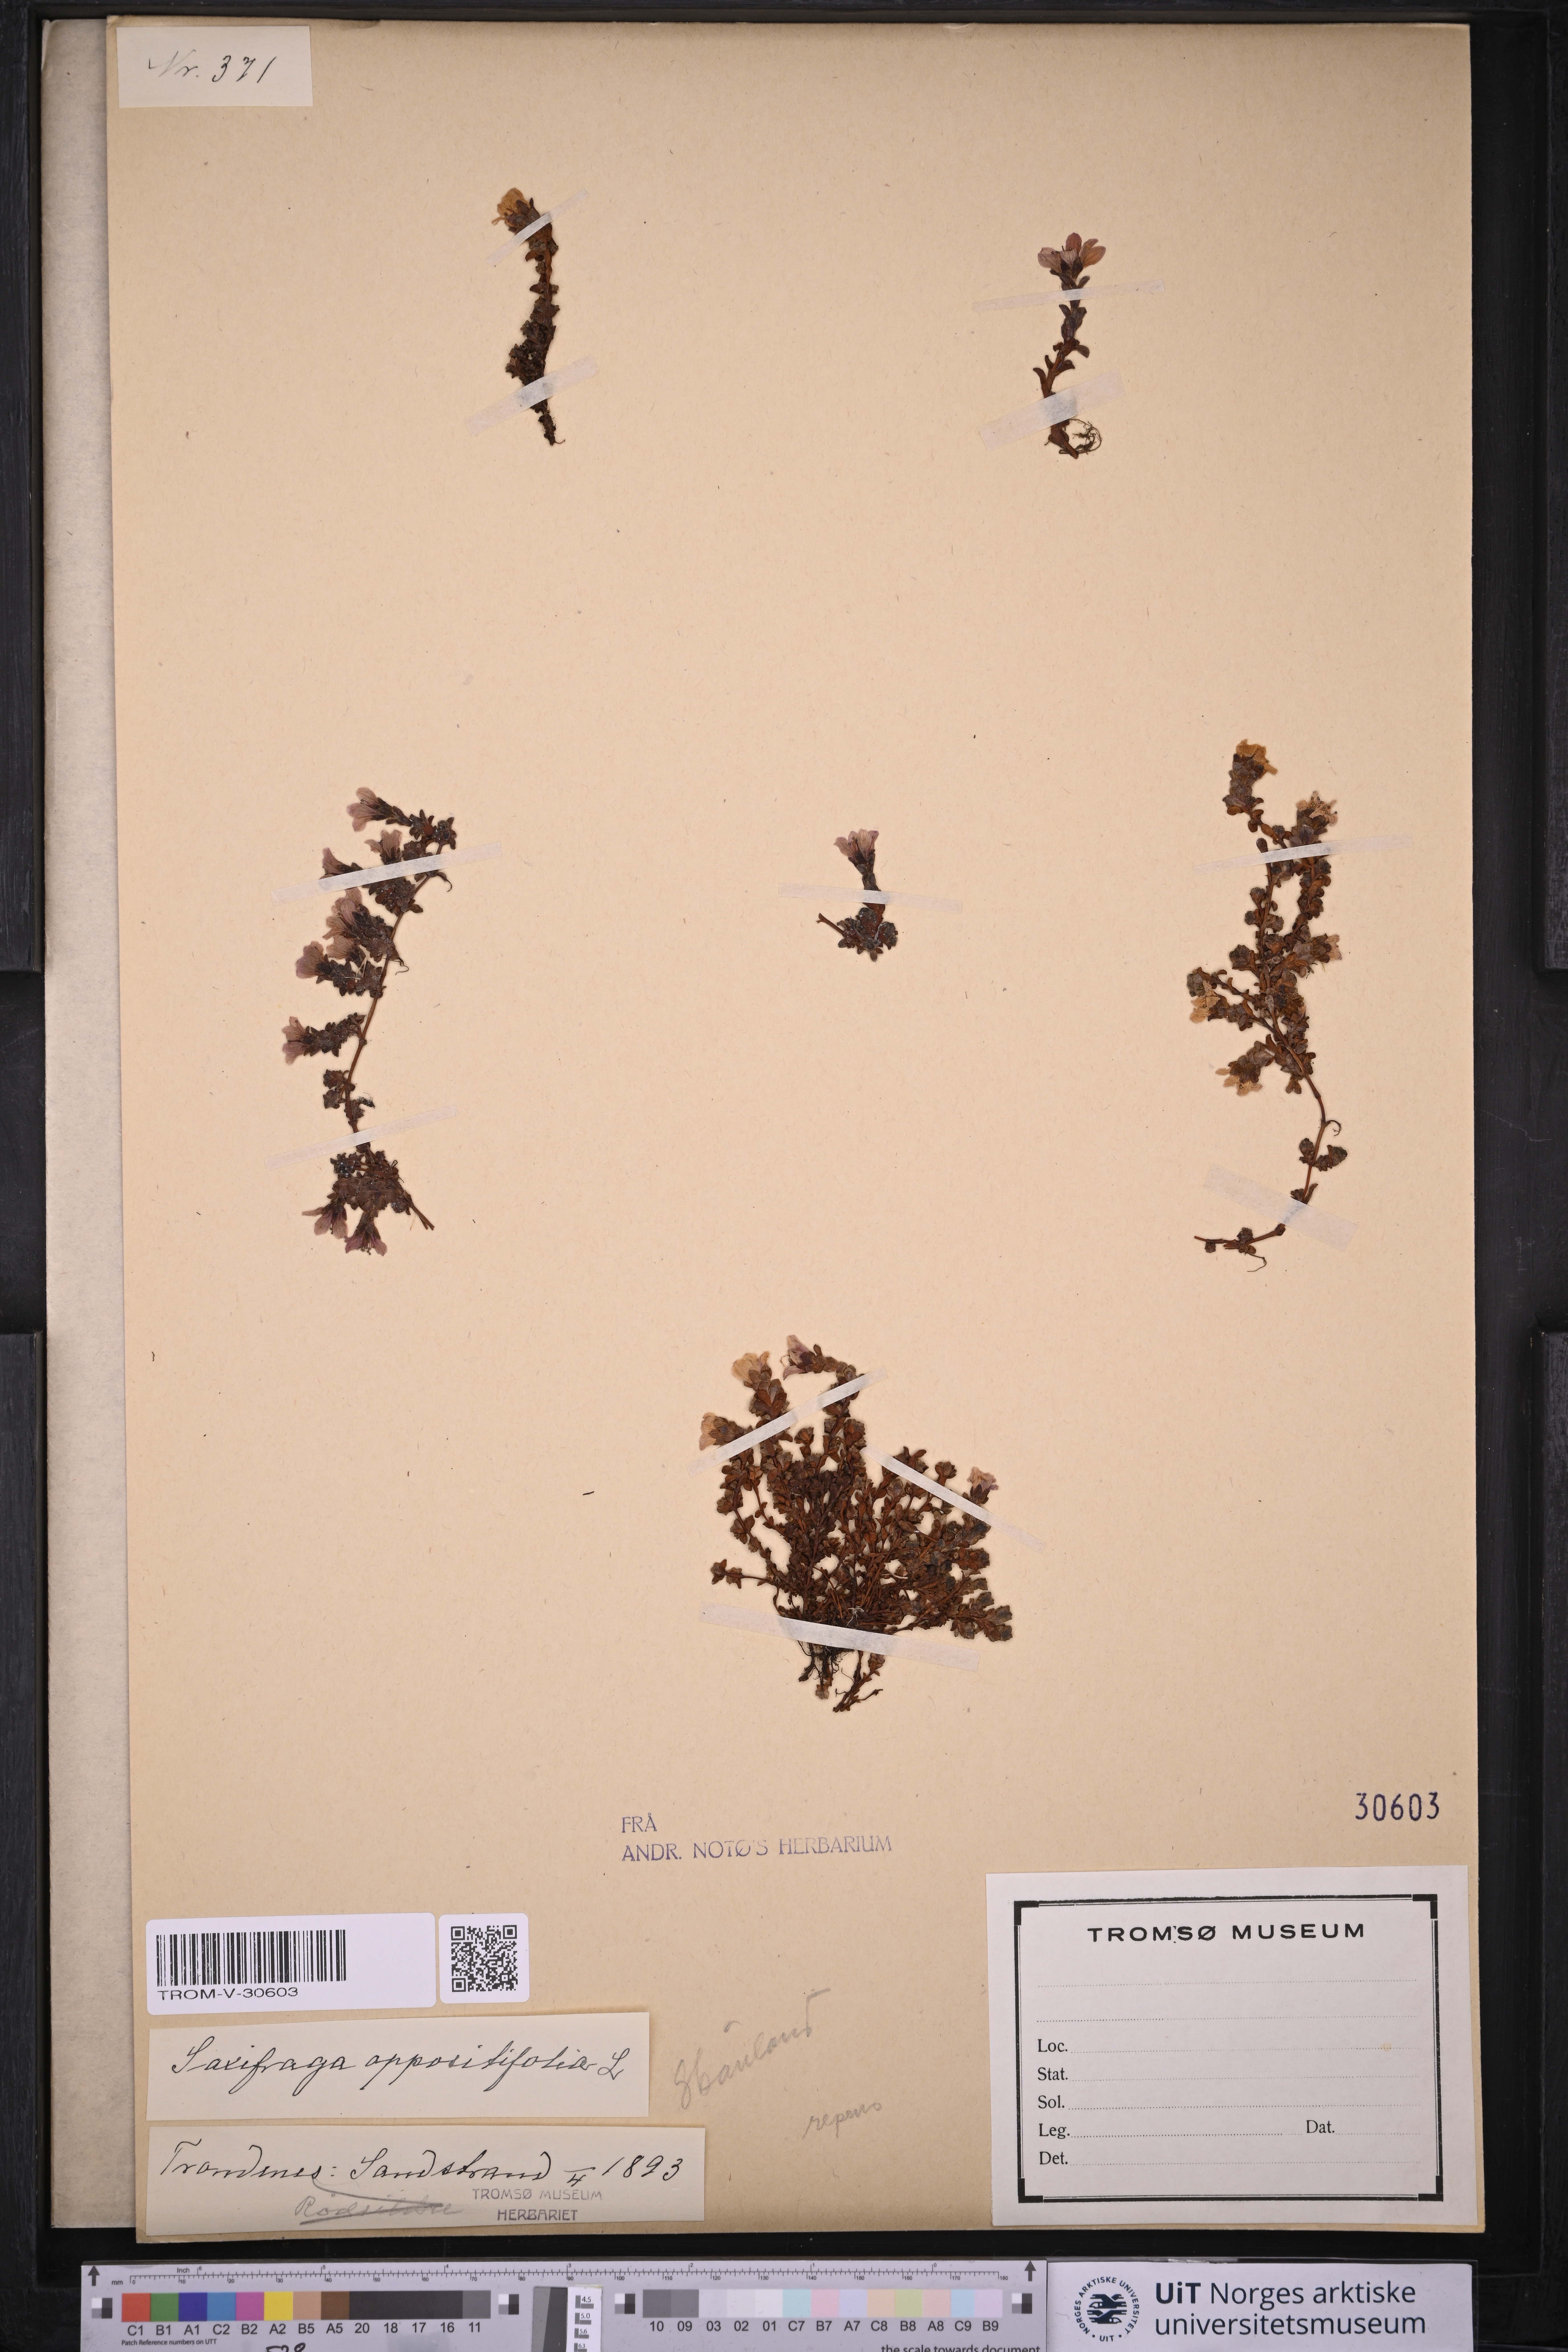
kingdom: Plantae
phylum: Tracheophyta
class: Magnoliopsida
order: Saxifragales
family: Saxifragaceae
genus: Saxifraga
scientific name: Saxifraga oppositifolia
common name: Purple saxifrage
